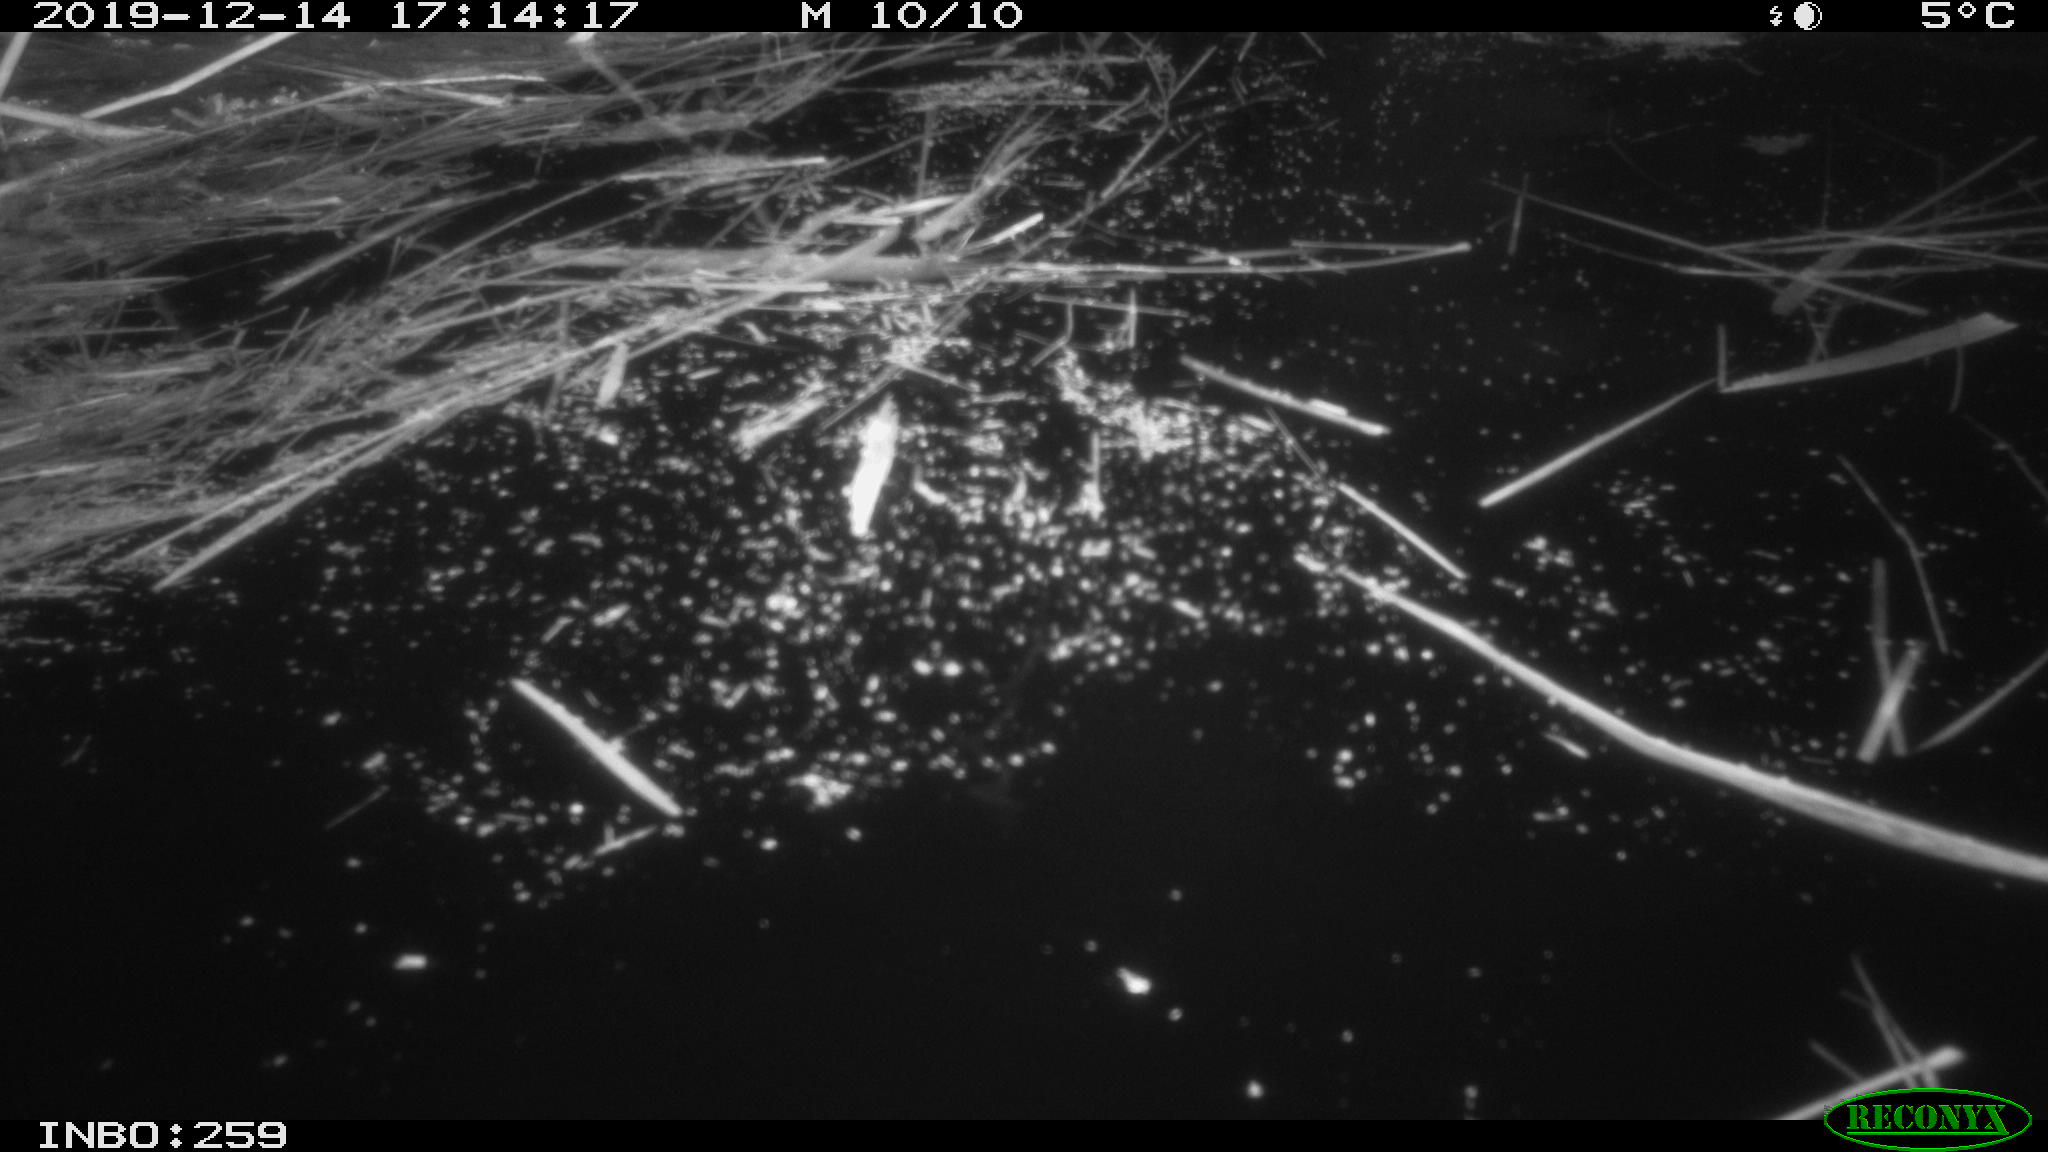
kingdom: Animalia
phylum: Chordata
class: Aves
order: Gruiformes
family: Rallidae
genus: Gallinula
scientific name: Gallinula chloropus
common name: Common moorhen
